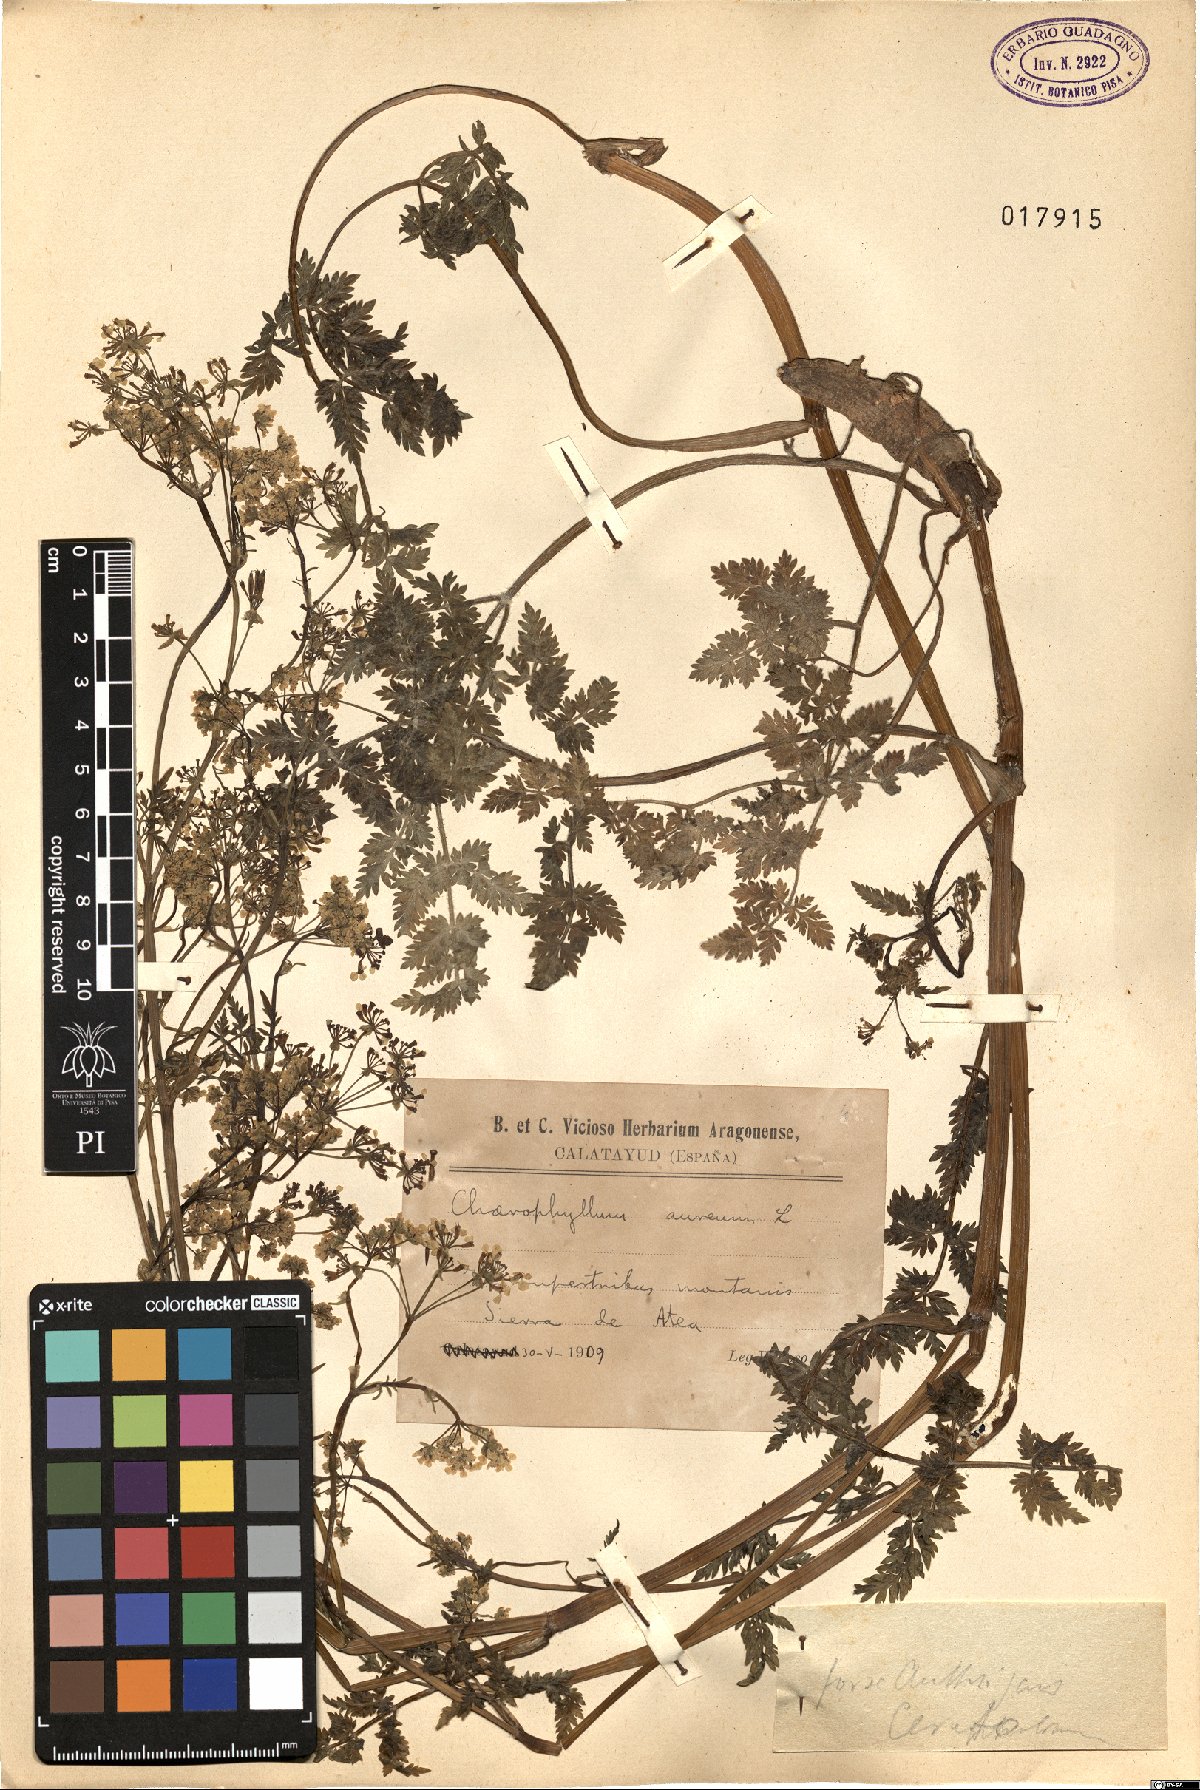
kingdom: Plantae
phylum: Tracheophyta
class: Magnoliopsida
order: Apiales
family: Apiaceae
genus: Anthriscus
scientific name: Anthriscus cerefolium
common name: Garden chervil
